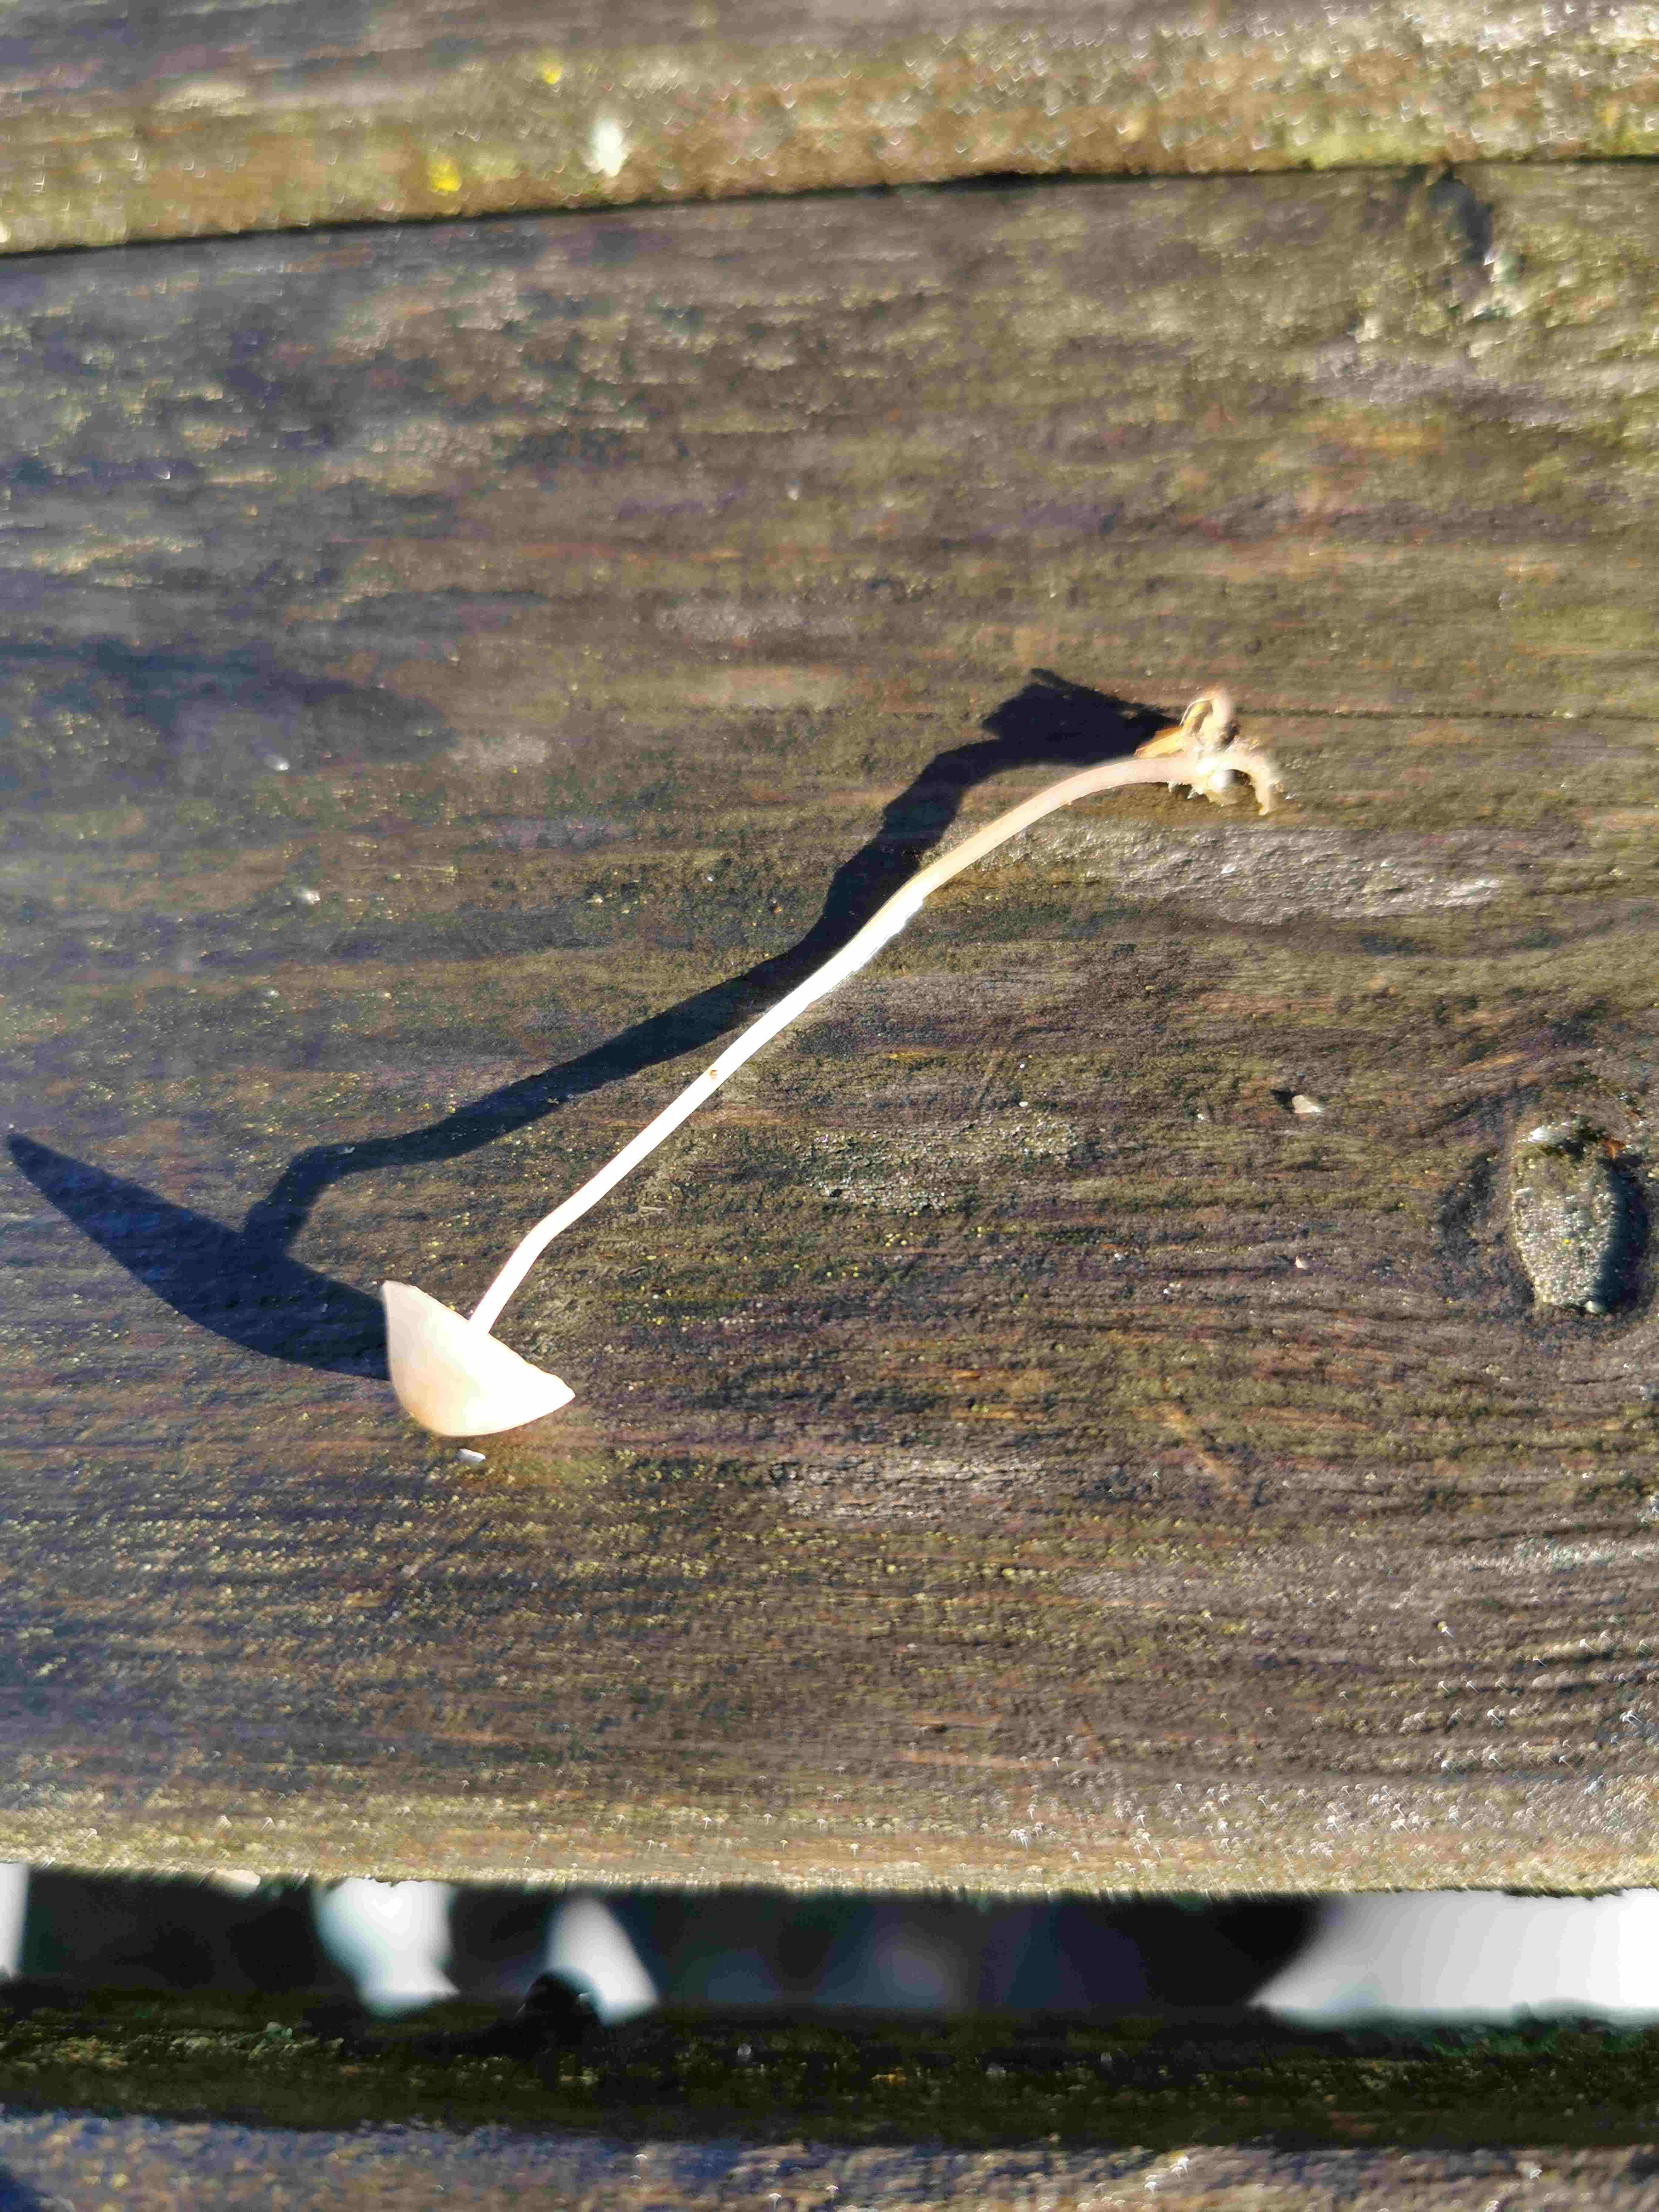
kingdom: Fungi
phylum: Basidiomycota
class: Agaricomycetes
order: Agaricales
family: Mycenaceae
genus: Mycena
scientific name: Mycena crocata
